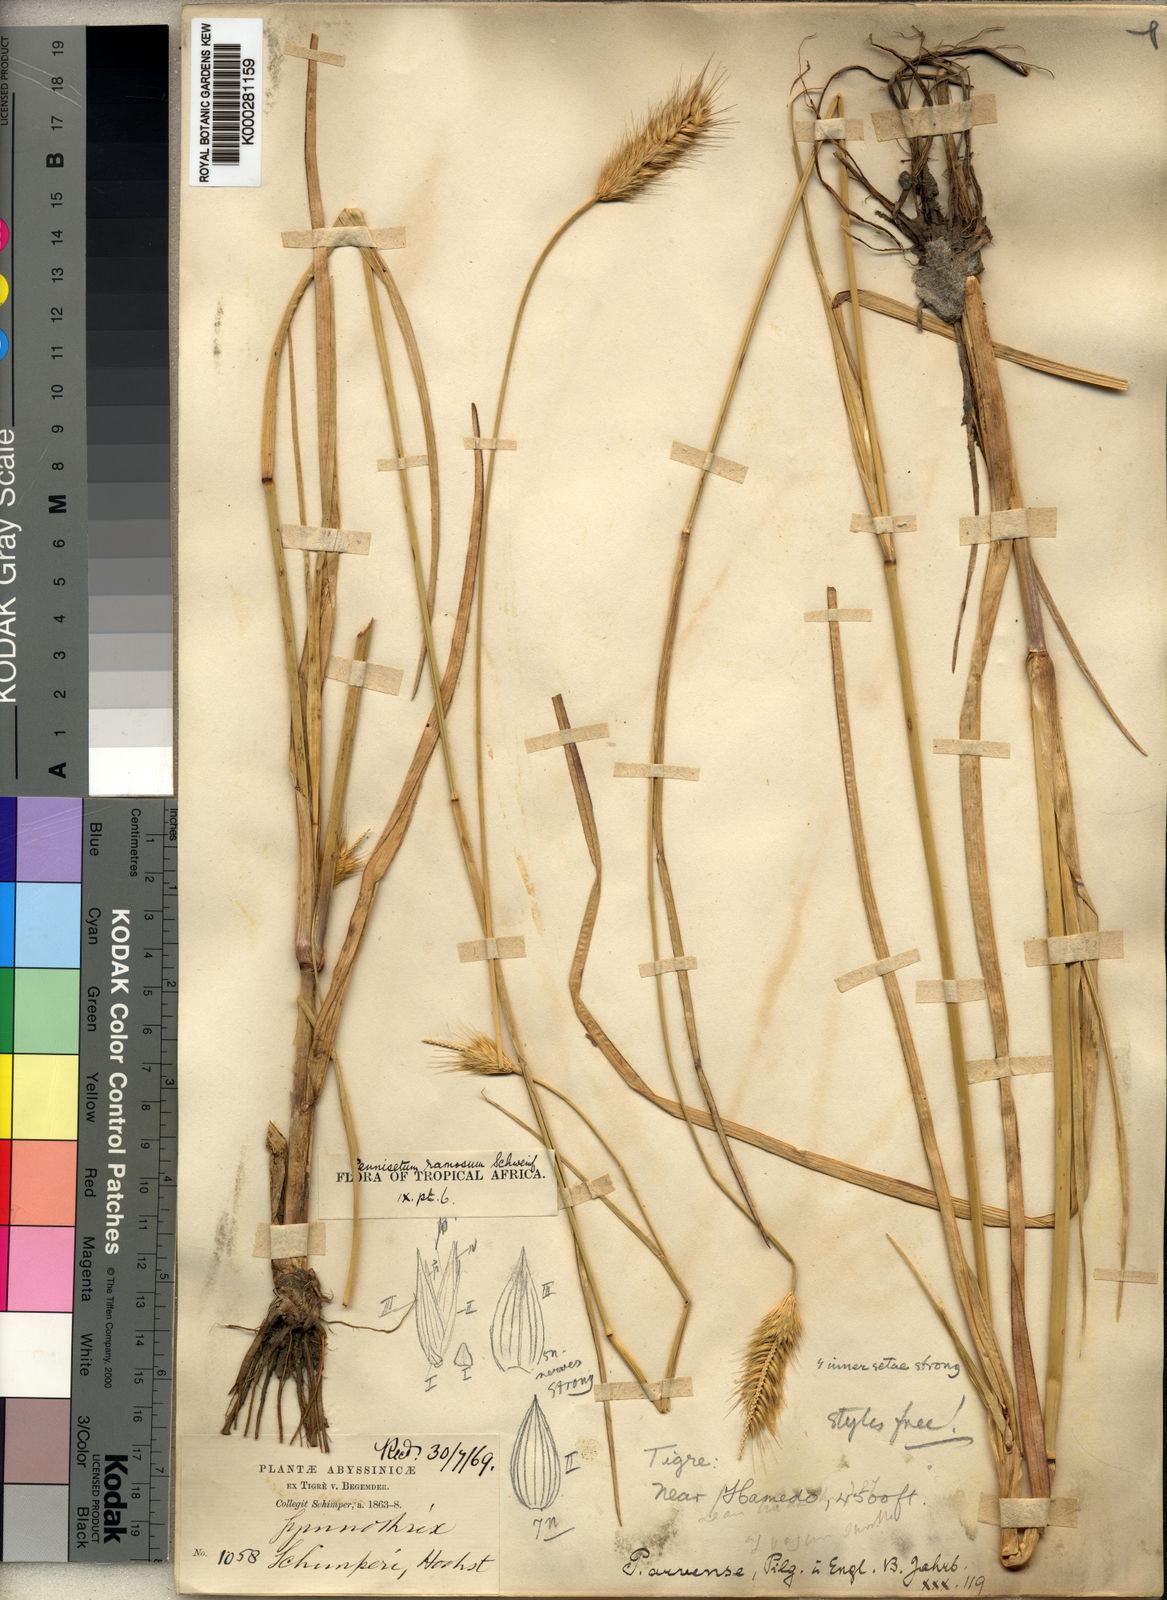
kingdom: Plantae
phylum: Tracheophyta
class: Liliopsida
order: Poales
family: Poaceae
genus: Cenchrus
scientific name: Cenchrus ramosus
